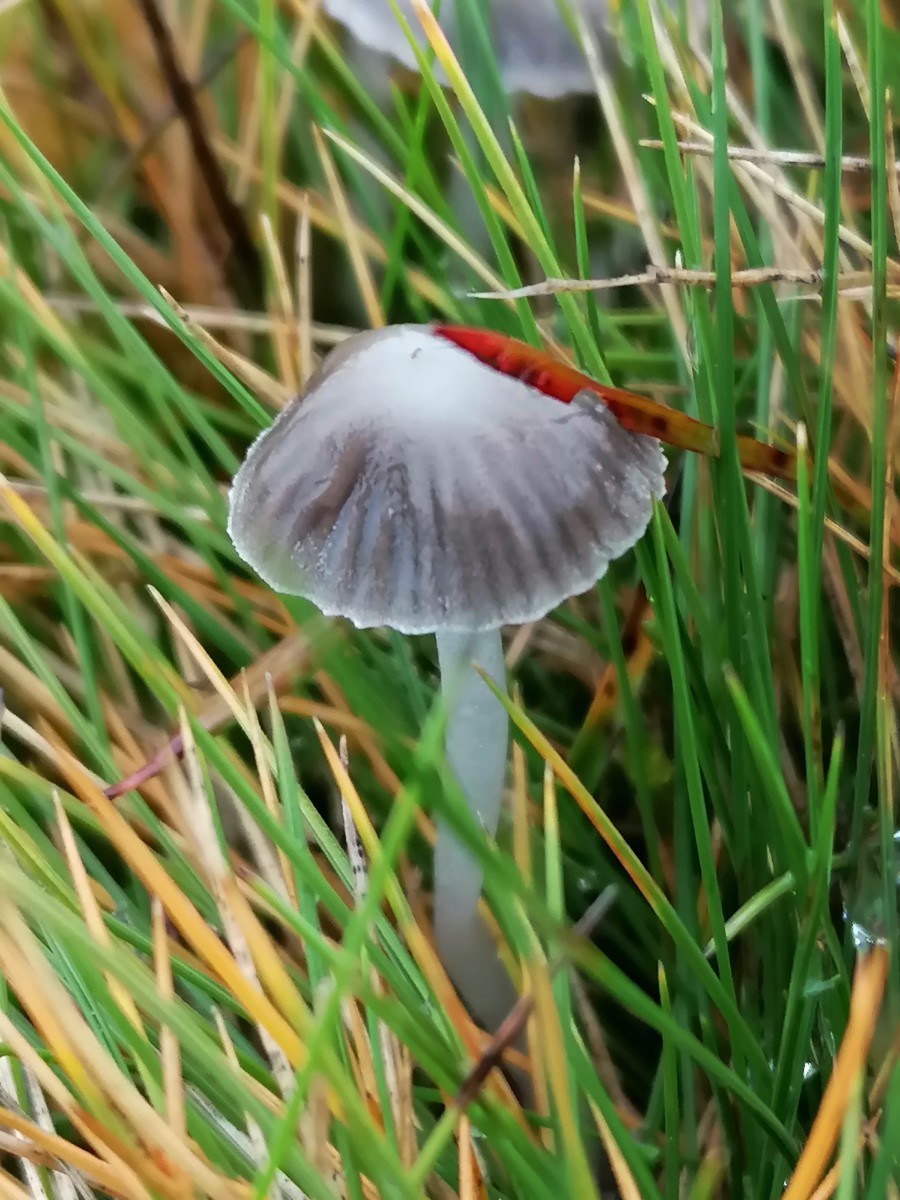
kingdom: Fungi
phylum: Basidiomycota
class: Agaricomycetes
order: Agaricales
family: Mycenaceae
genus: Mycena
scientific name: Mycena epipterygia
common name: Yellowleg bonnet
